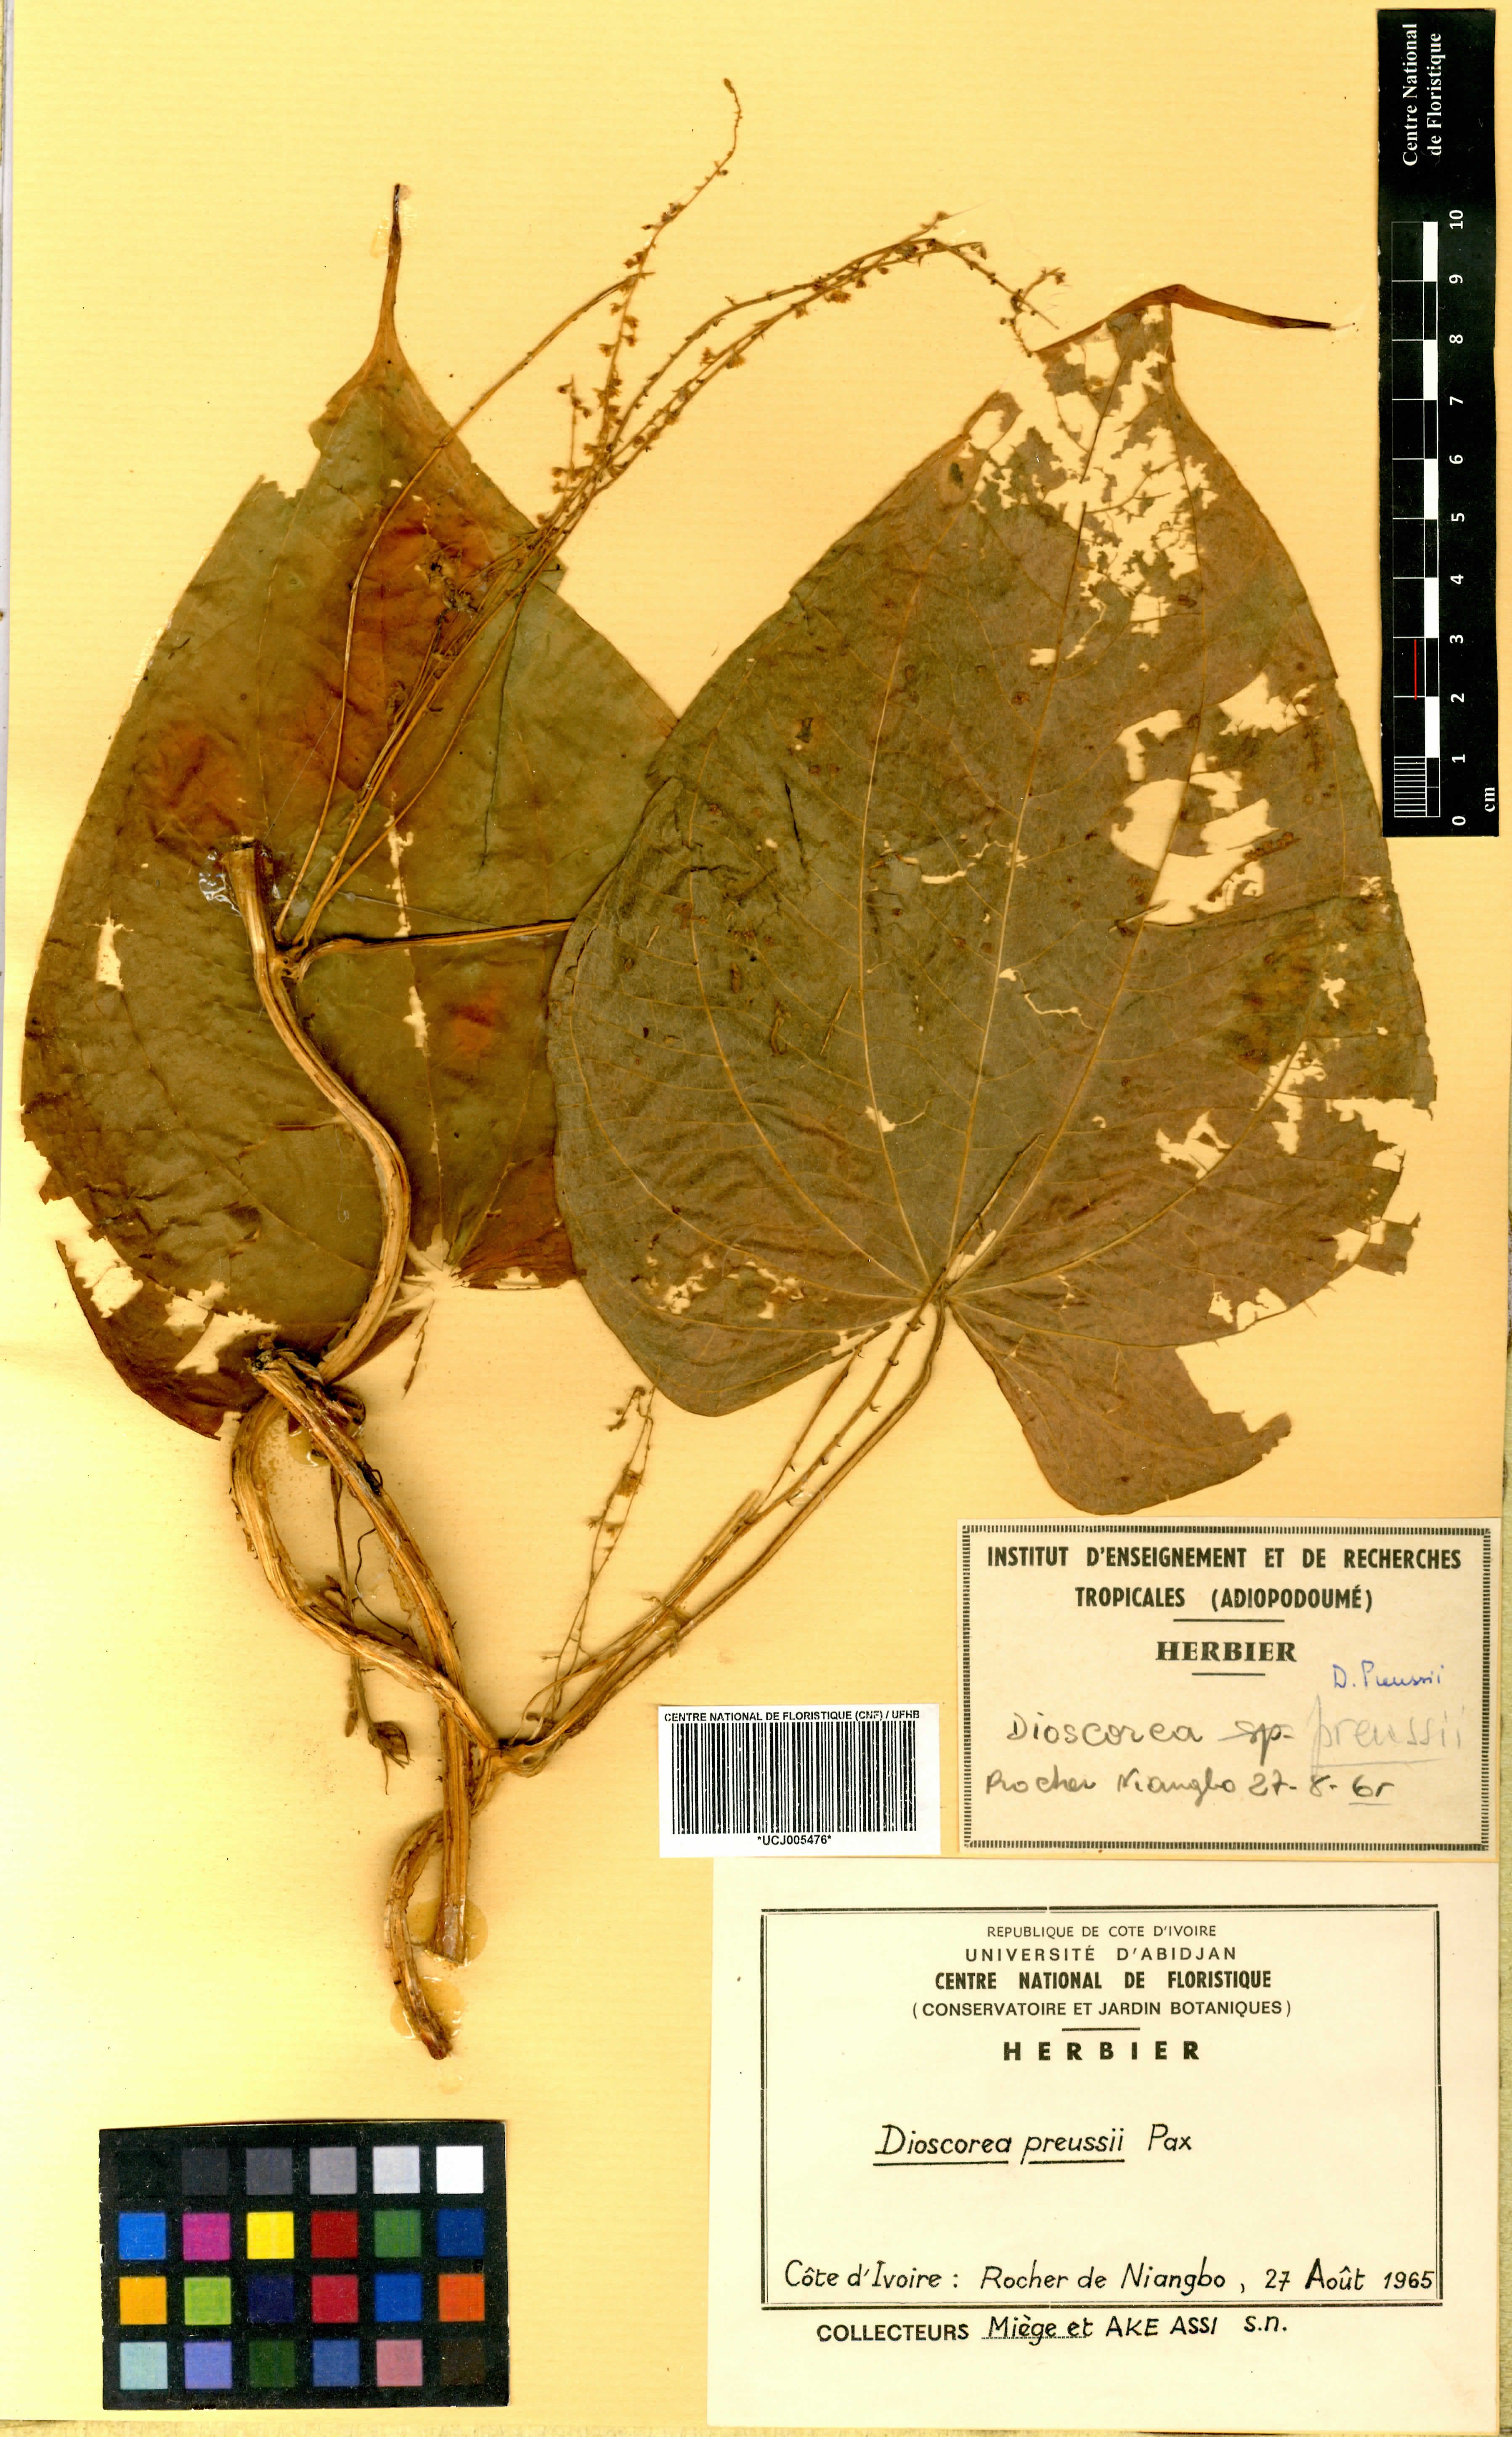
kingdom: Plantae
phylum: Tracheophyta
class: Liliopsida
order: Dioscoreales
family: Dioscoreaceae
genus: Dioscorea
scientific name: Dioscorea preussii
